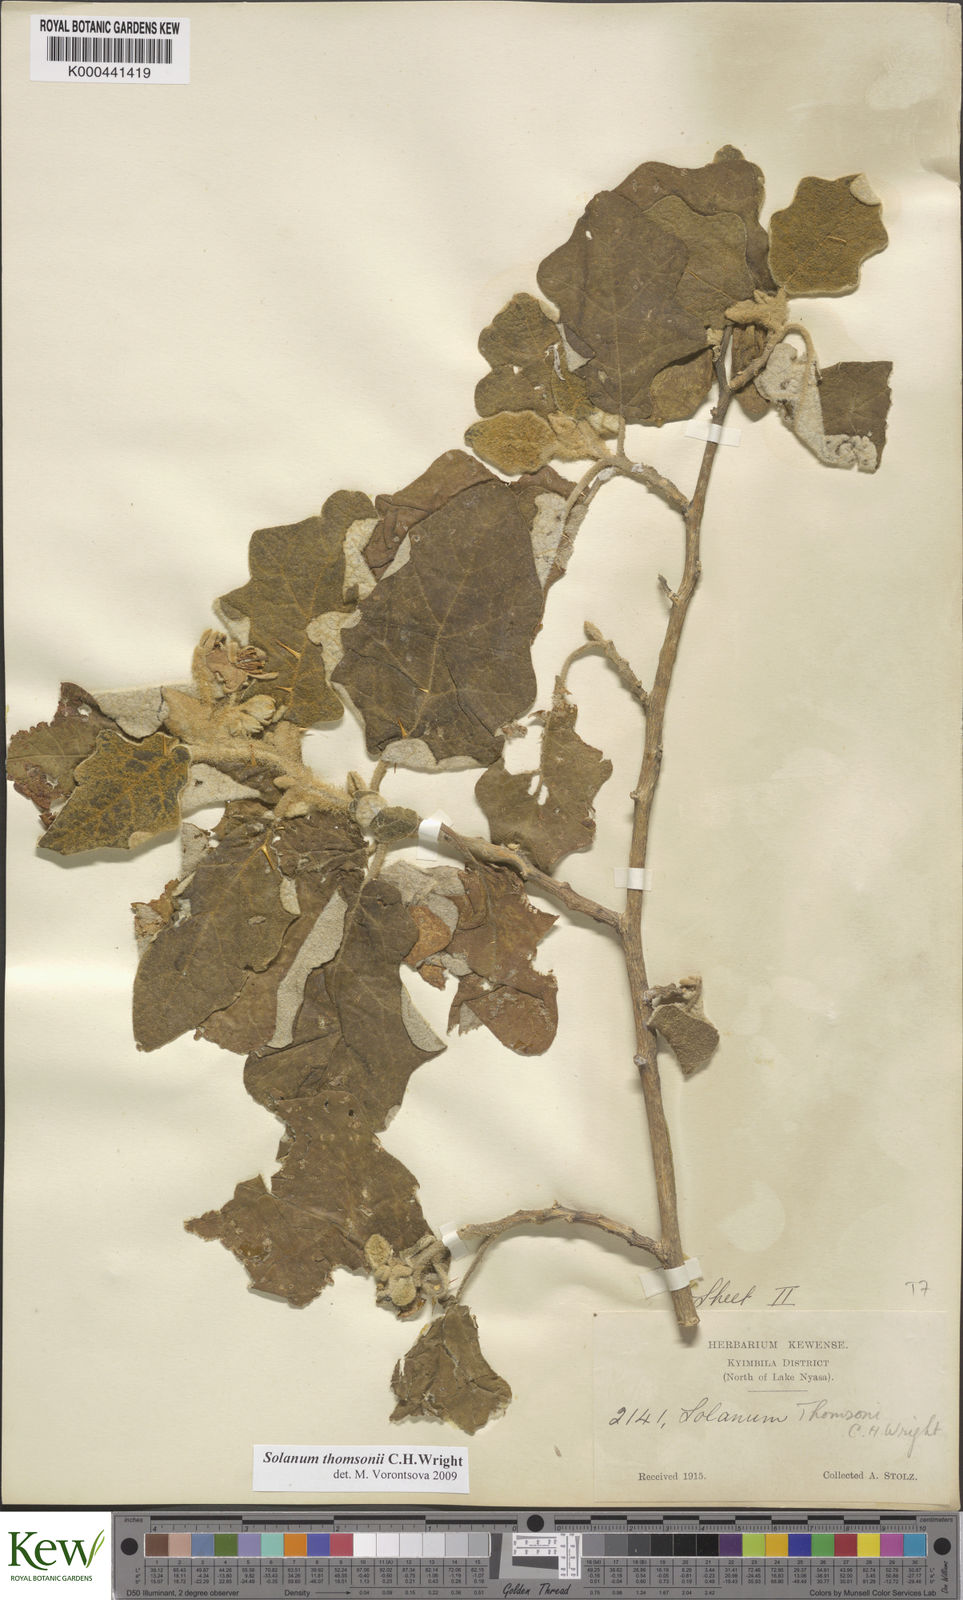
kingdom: Plantae
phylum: Tracheophyta
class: Magnoliopsida
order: Solanales
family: Solanaceae
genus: Solanum
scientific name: Solanum aculeastrum
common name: Goat bitter-apple
